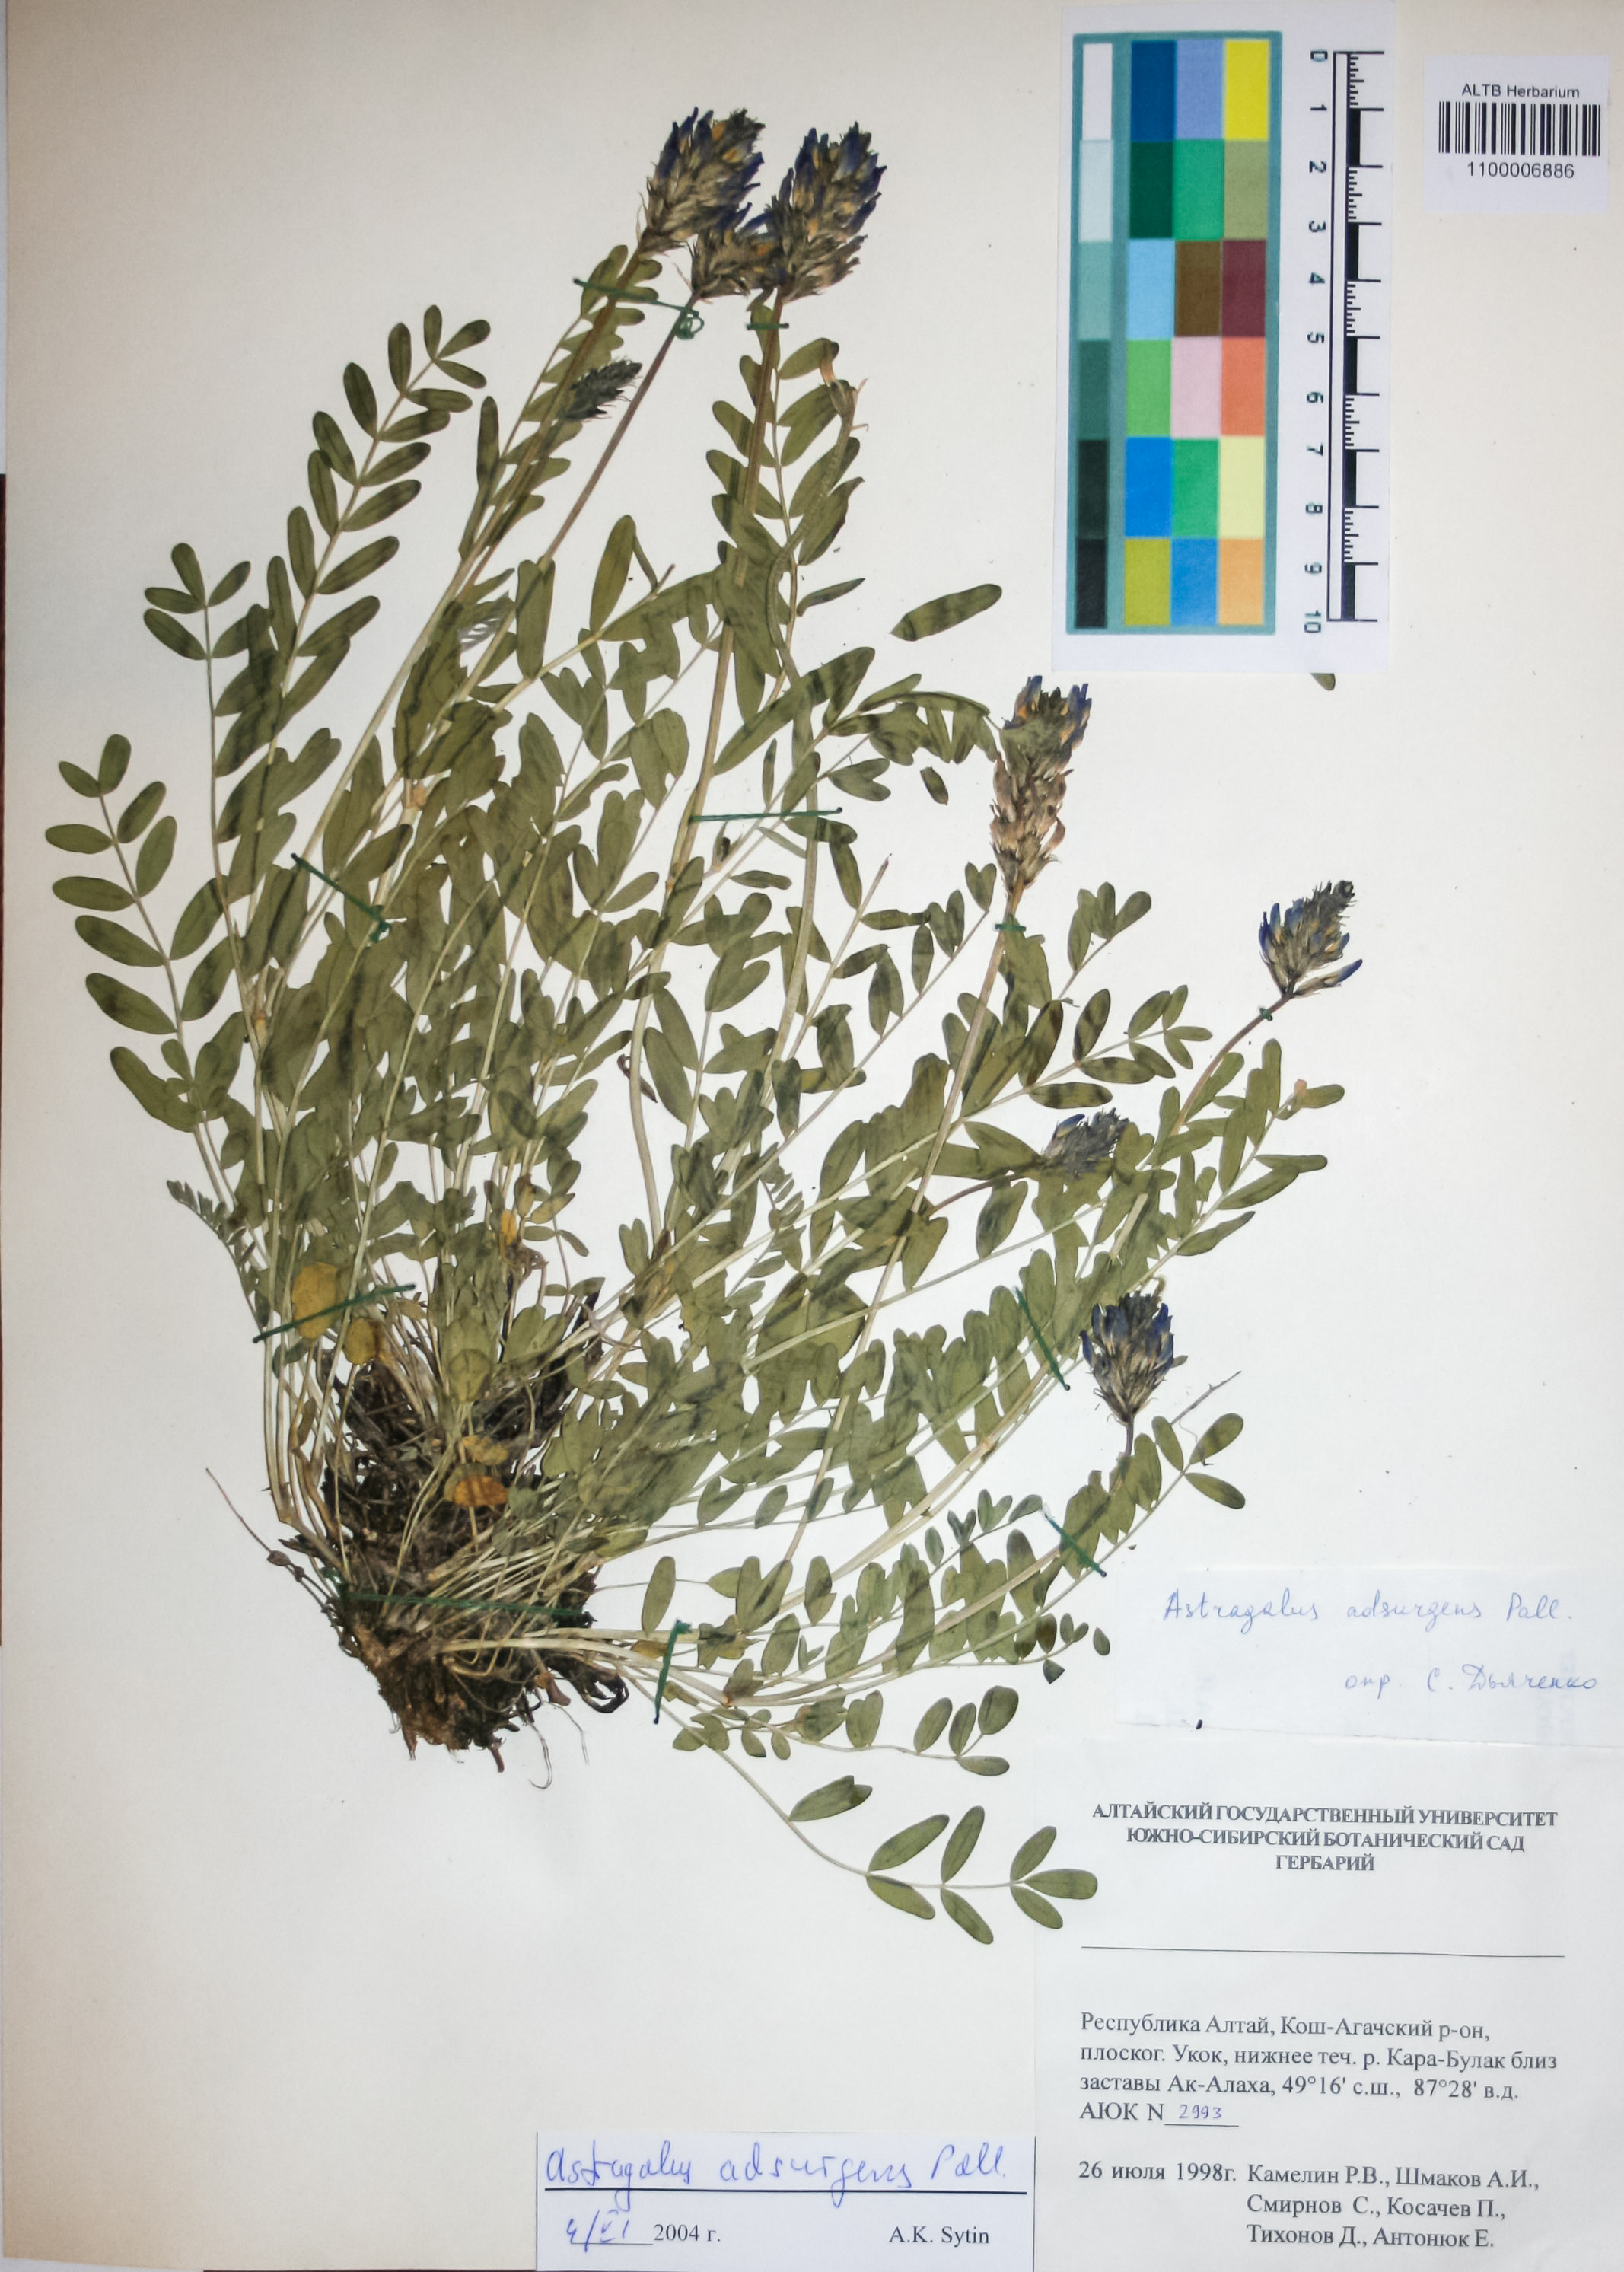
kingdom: Plantae
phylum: Tracheophyta
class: Magnoliopsida
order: Fabales
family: Fabaceae
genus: Astragalus
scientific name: Astragalus laxmannii
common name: Laxmann's milk-vetch
